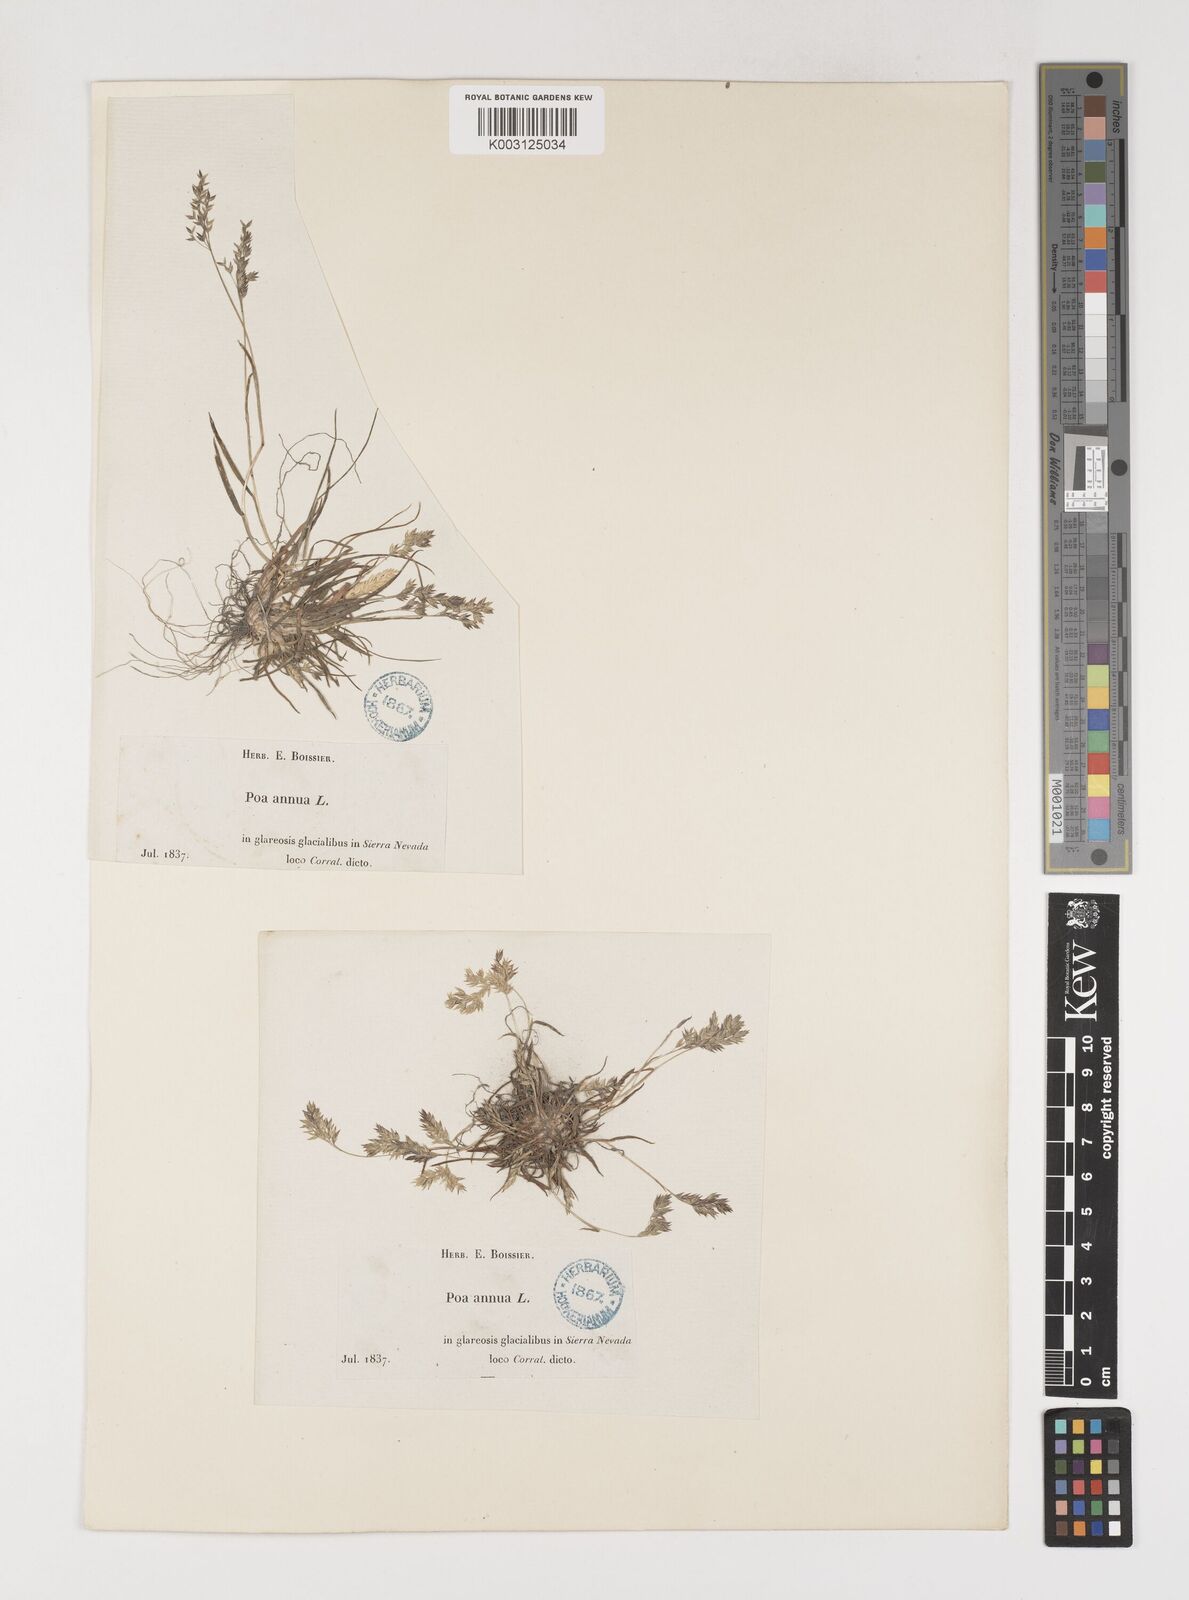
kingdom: Plantae
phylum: Tracheophyta
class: Liliopsida
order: Poales
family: Poaceae
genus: Poa
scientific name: Poa supina
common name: Supina bluegrass
